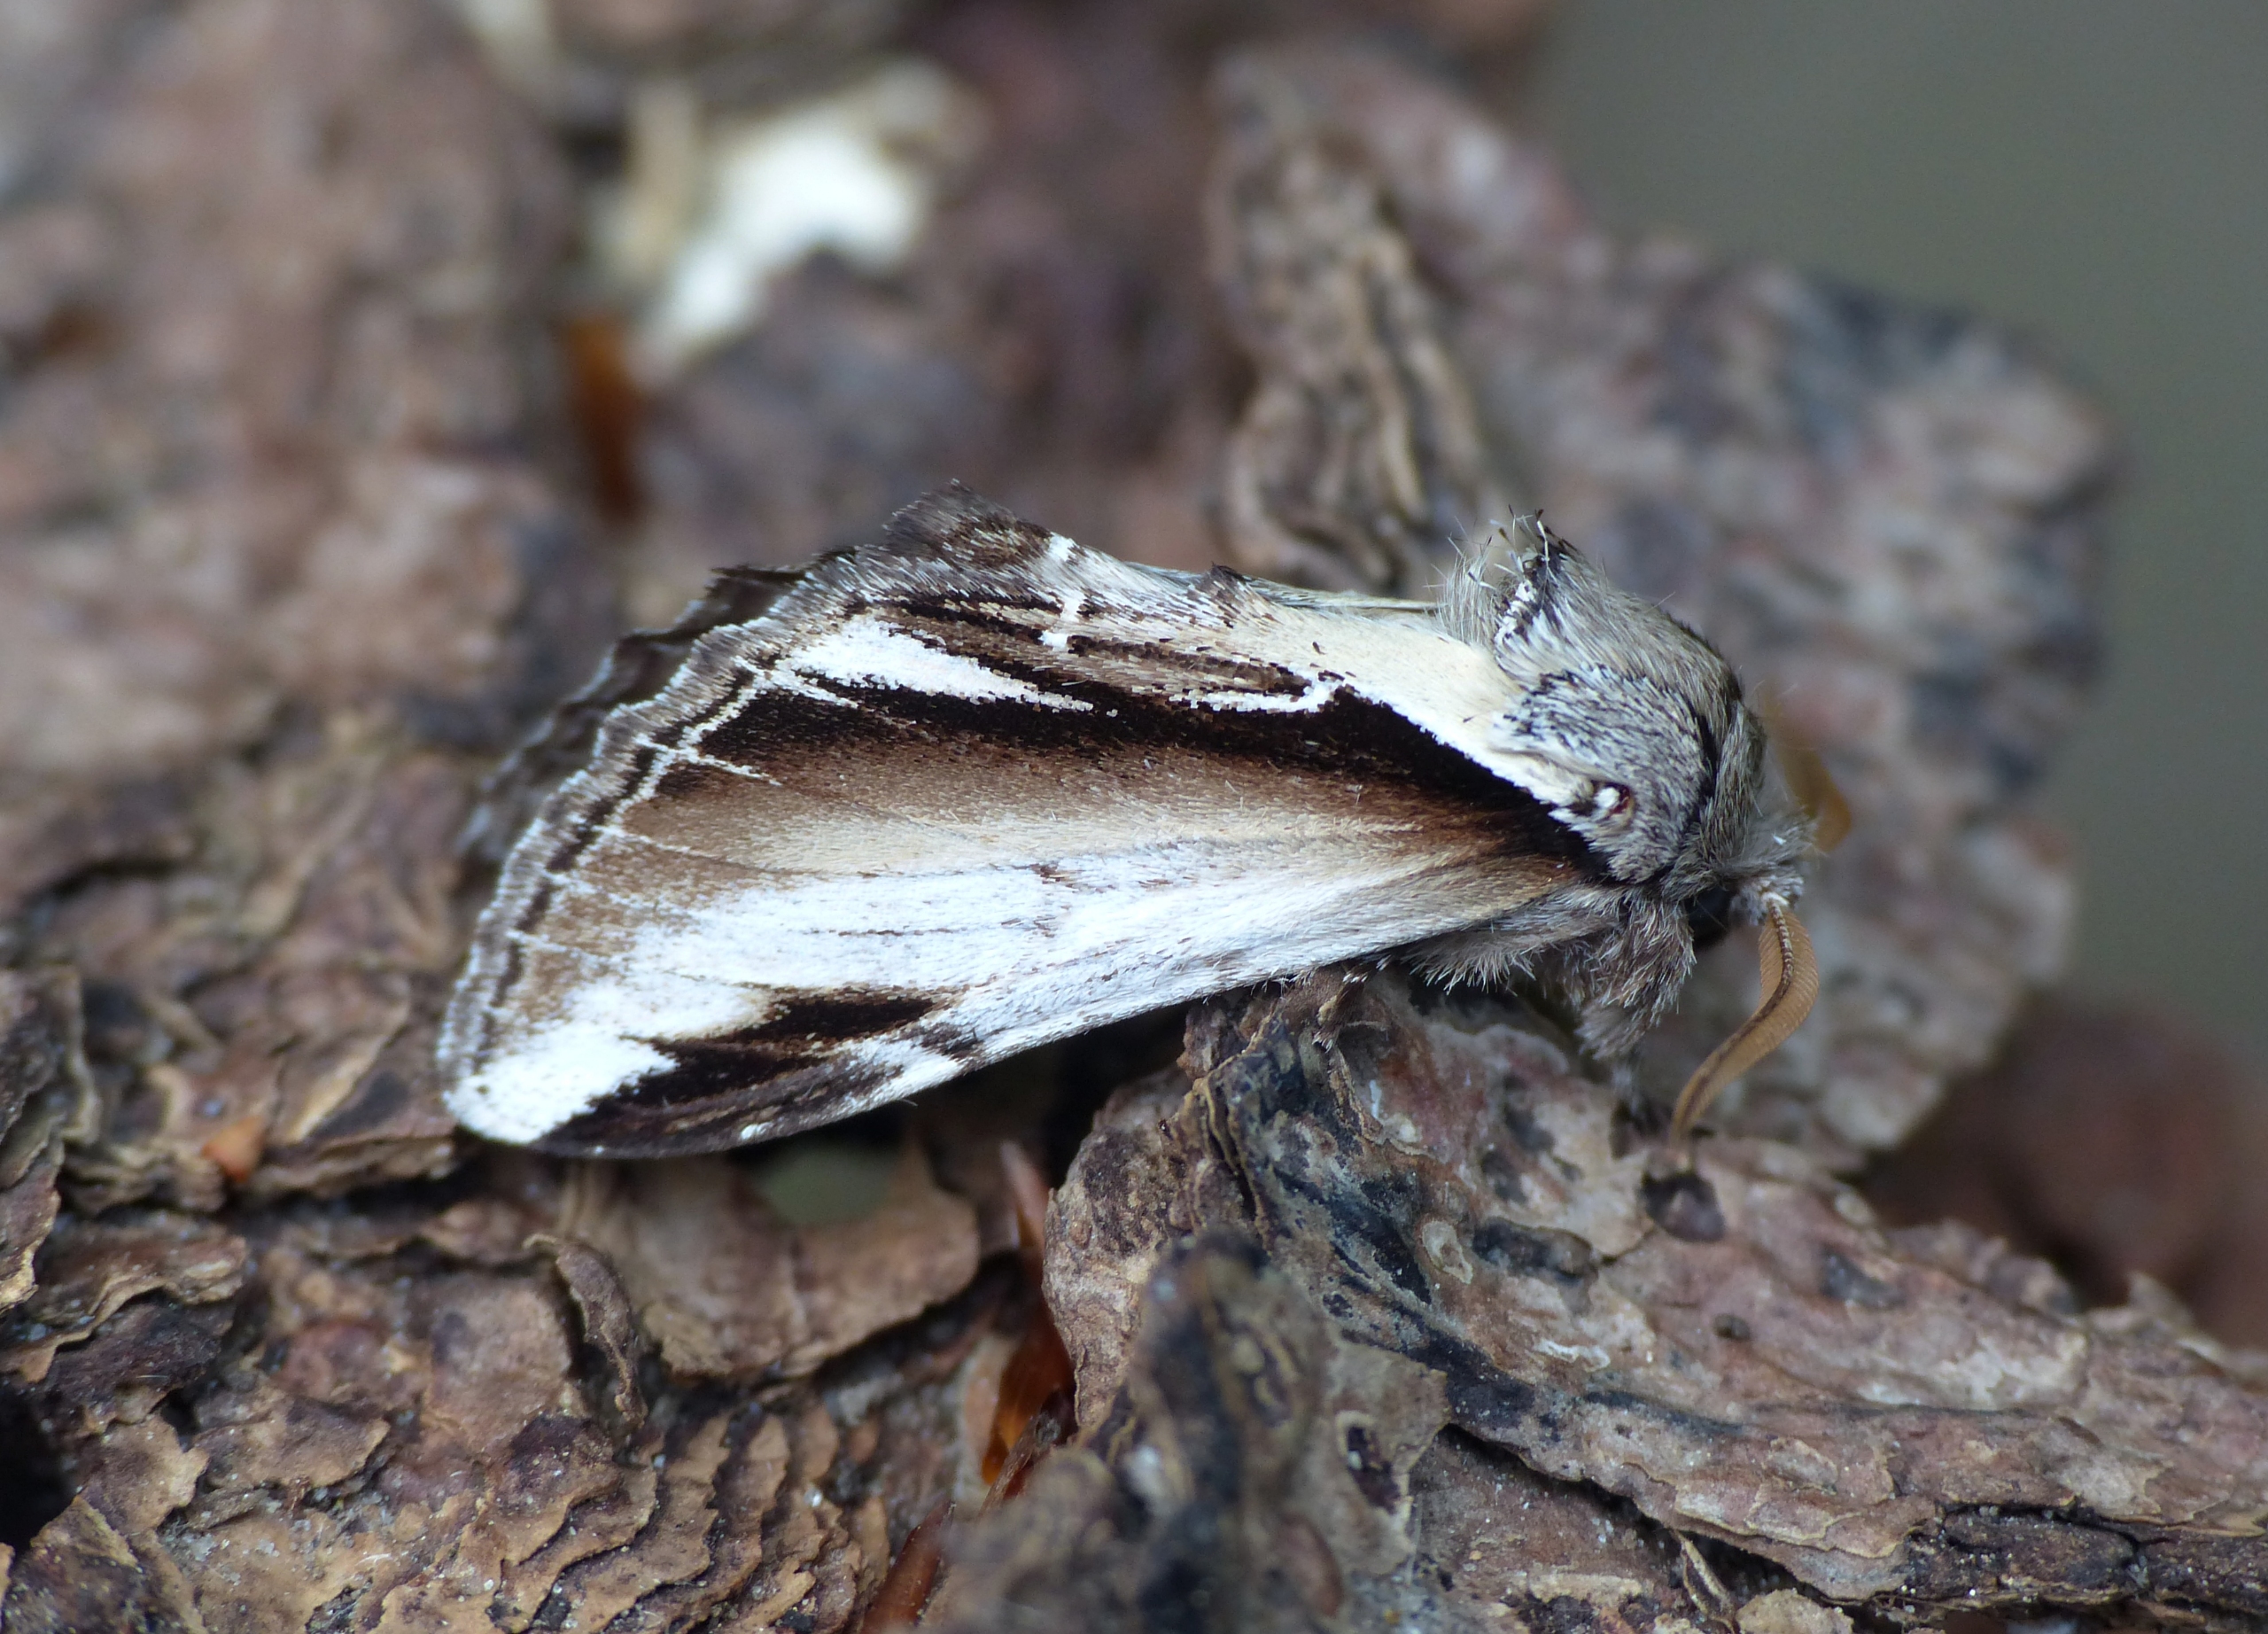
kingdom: Animalia
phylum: Arthropoda
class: Insecta
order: Lepidoptera
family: Notodontidae
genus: Pheosia
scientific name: Pheosia gnoma
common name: Birkeporcelænsspinder
